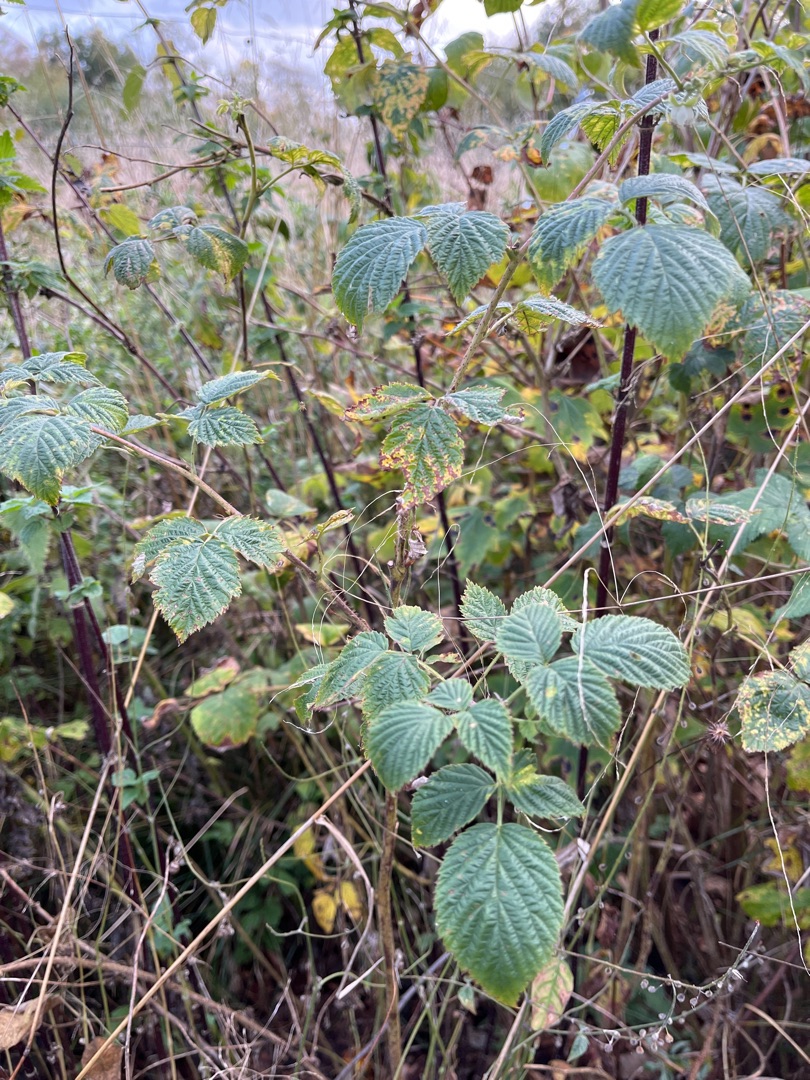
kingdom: Plantae
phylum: Tracheophyta
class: Magnoliopsida
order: Rosales
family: Rosaceae
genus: Rubus
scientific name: Rubus idaeus
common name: Hindbær
